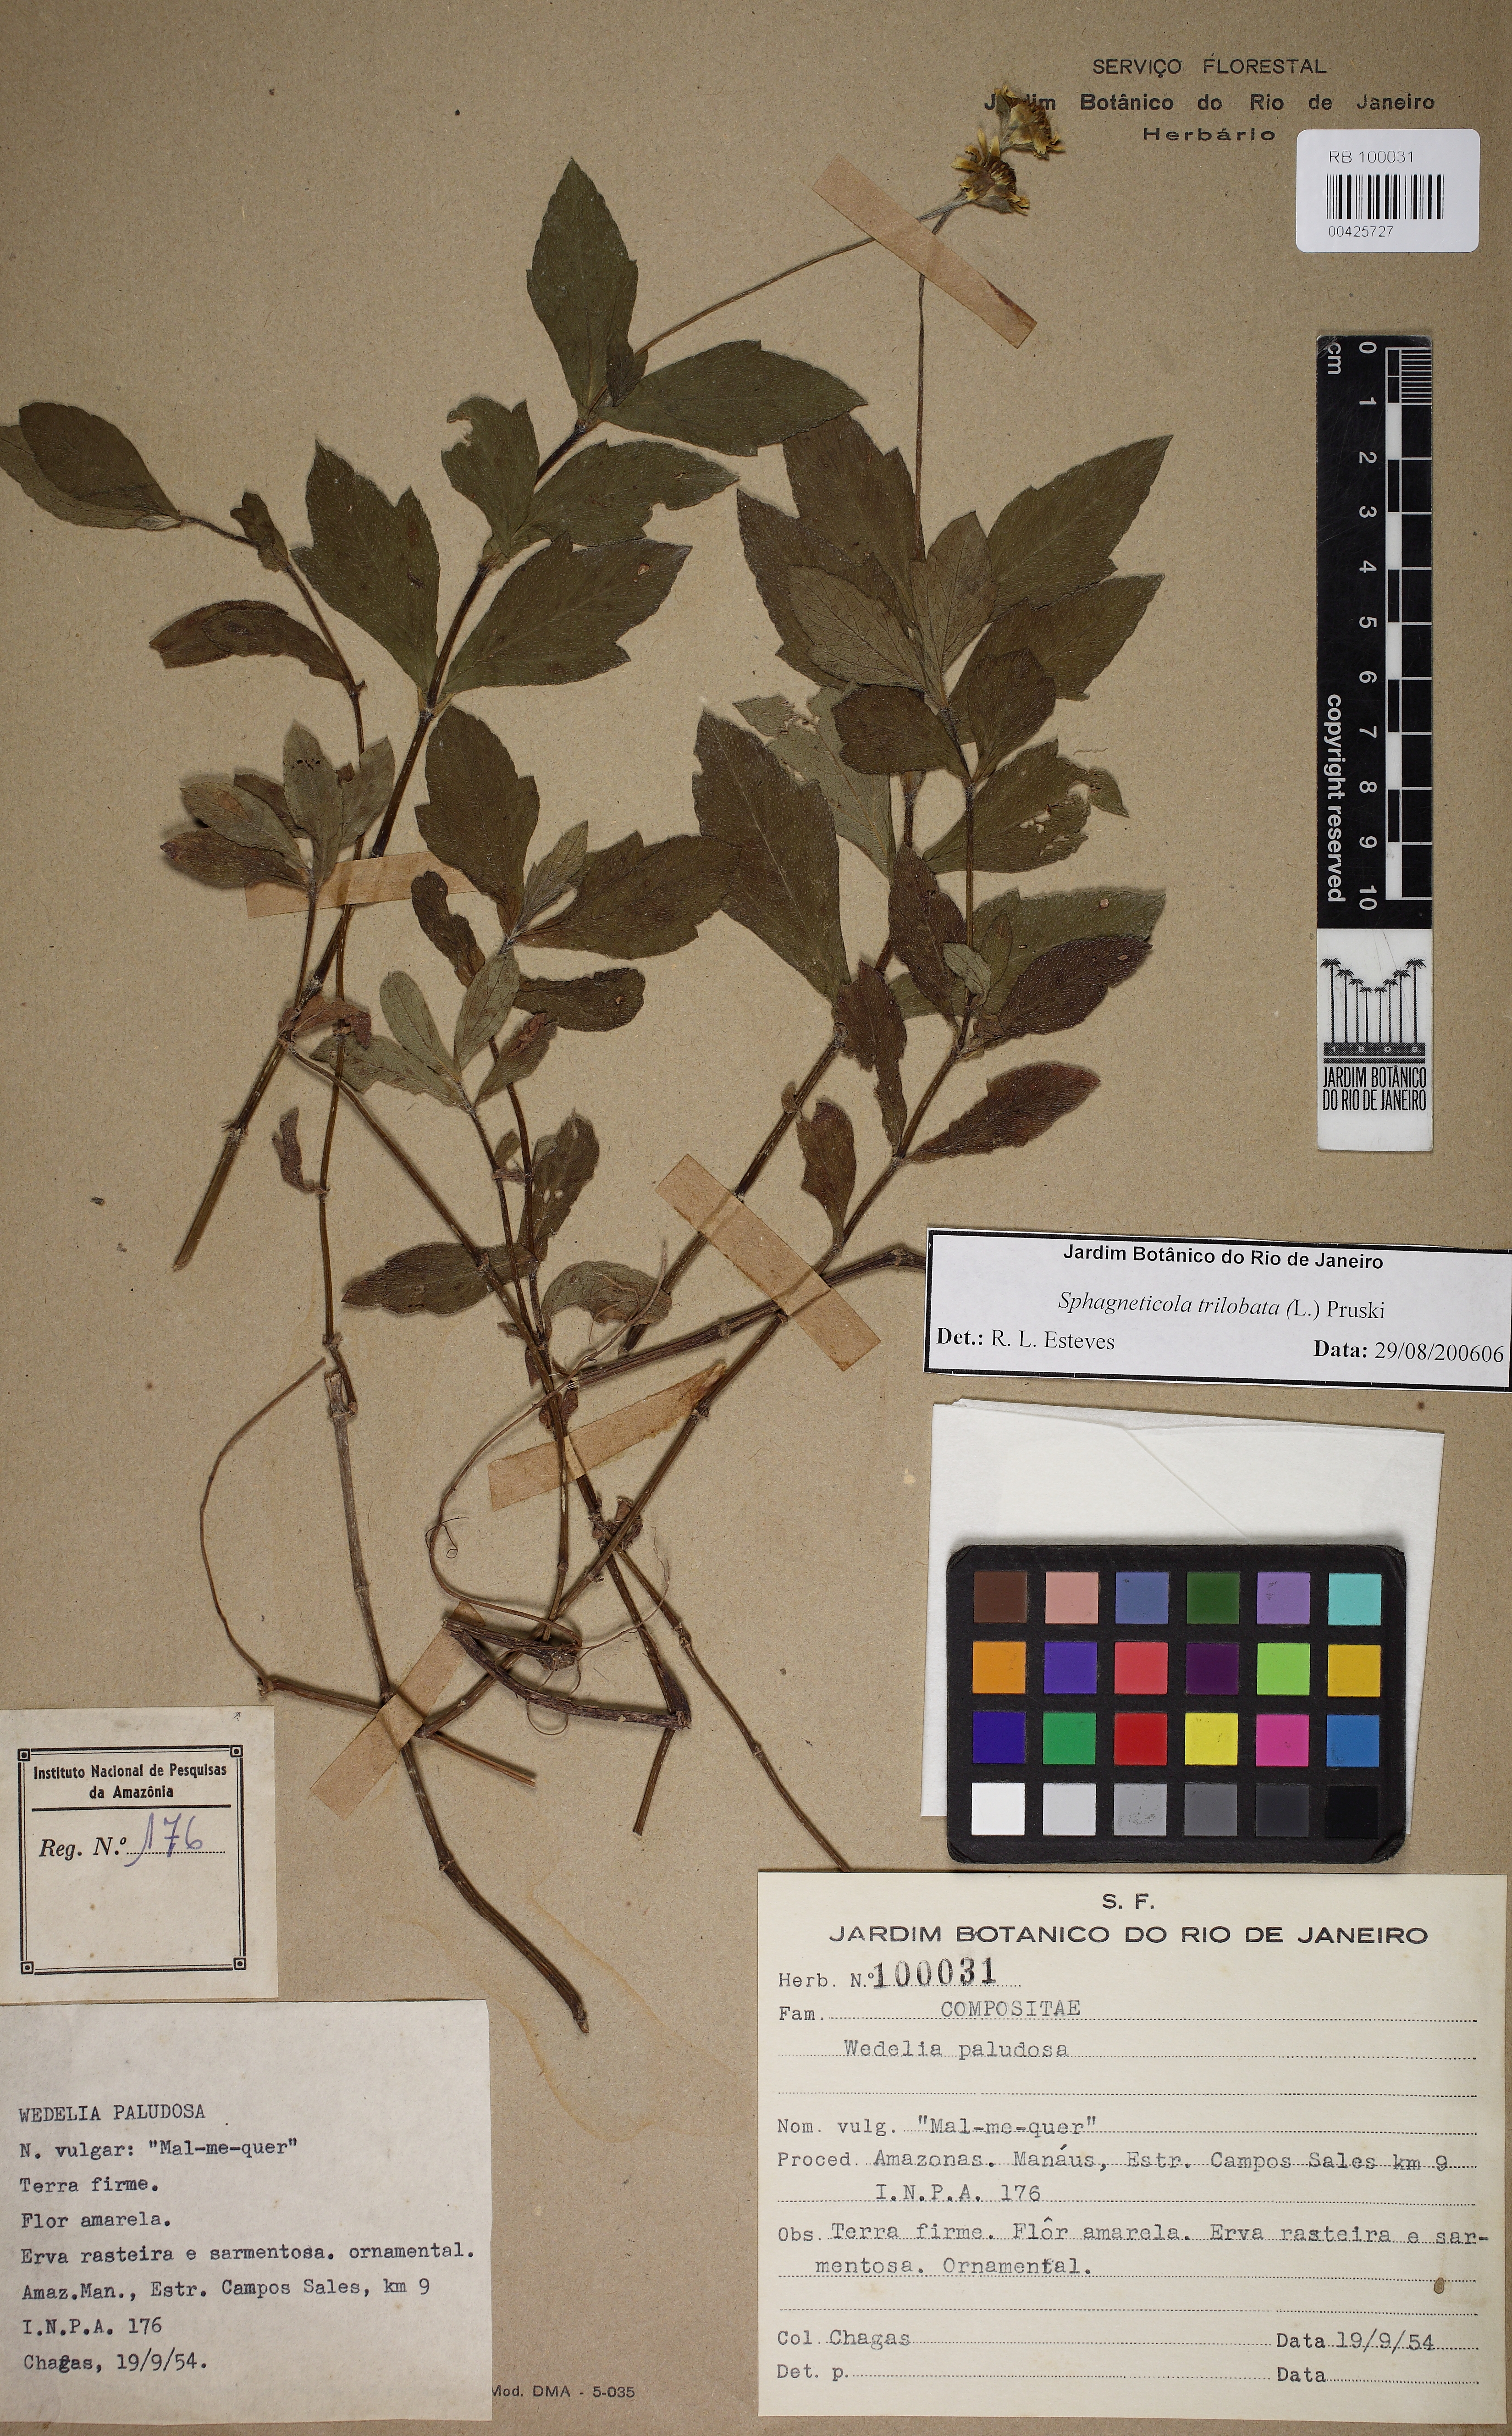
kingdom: Plantae
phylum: Tracheophyta
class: Magnoliopsida
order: Asterales
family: Asteraceae
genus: Sphagneticola
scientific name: Sphagneticola trilobata
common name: Bay biscayne creeping-oxeye
